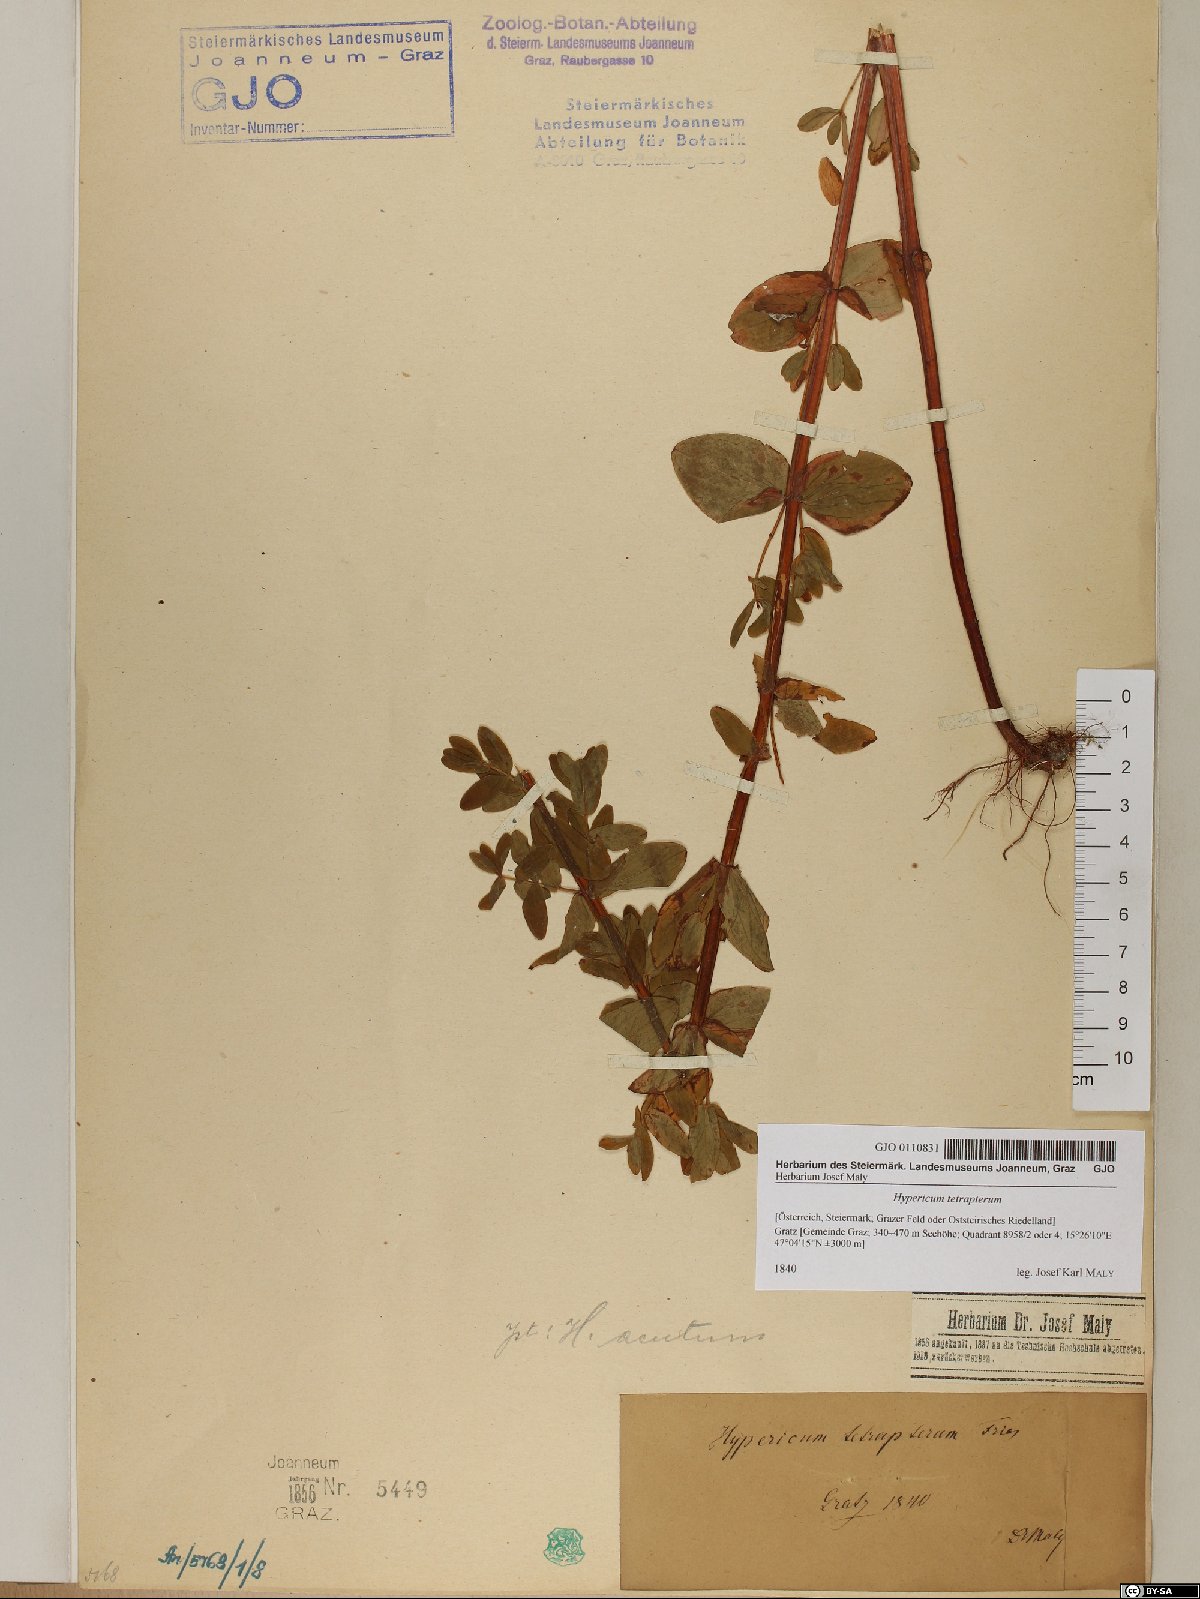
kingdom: Plantae
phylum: Tracheophyta
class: Magnoliopsida
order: Malpighiales
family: Hypericaceae
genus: Hypericum
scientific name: Hypericum tetrapterum
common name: Square-stalked st. john's-wort
